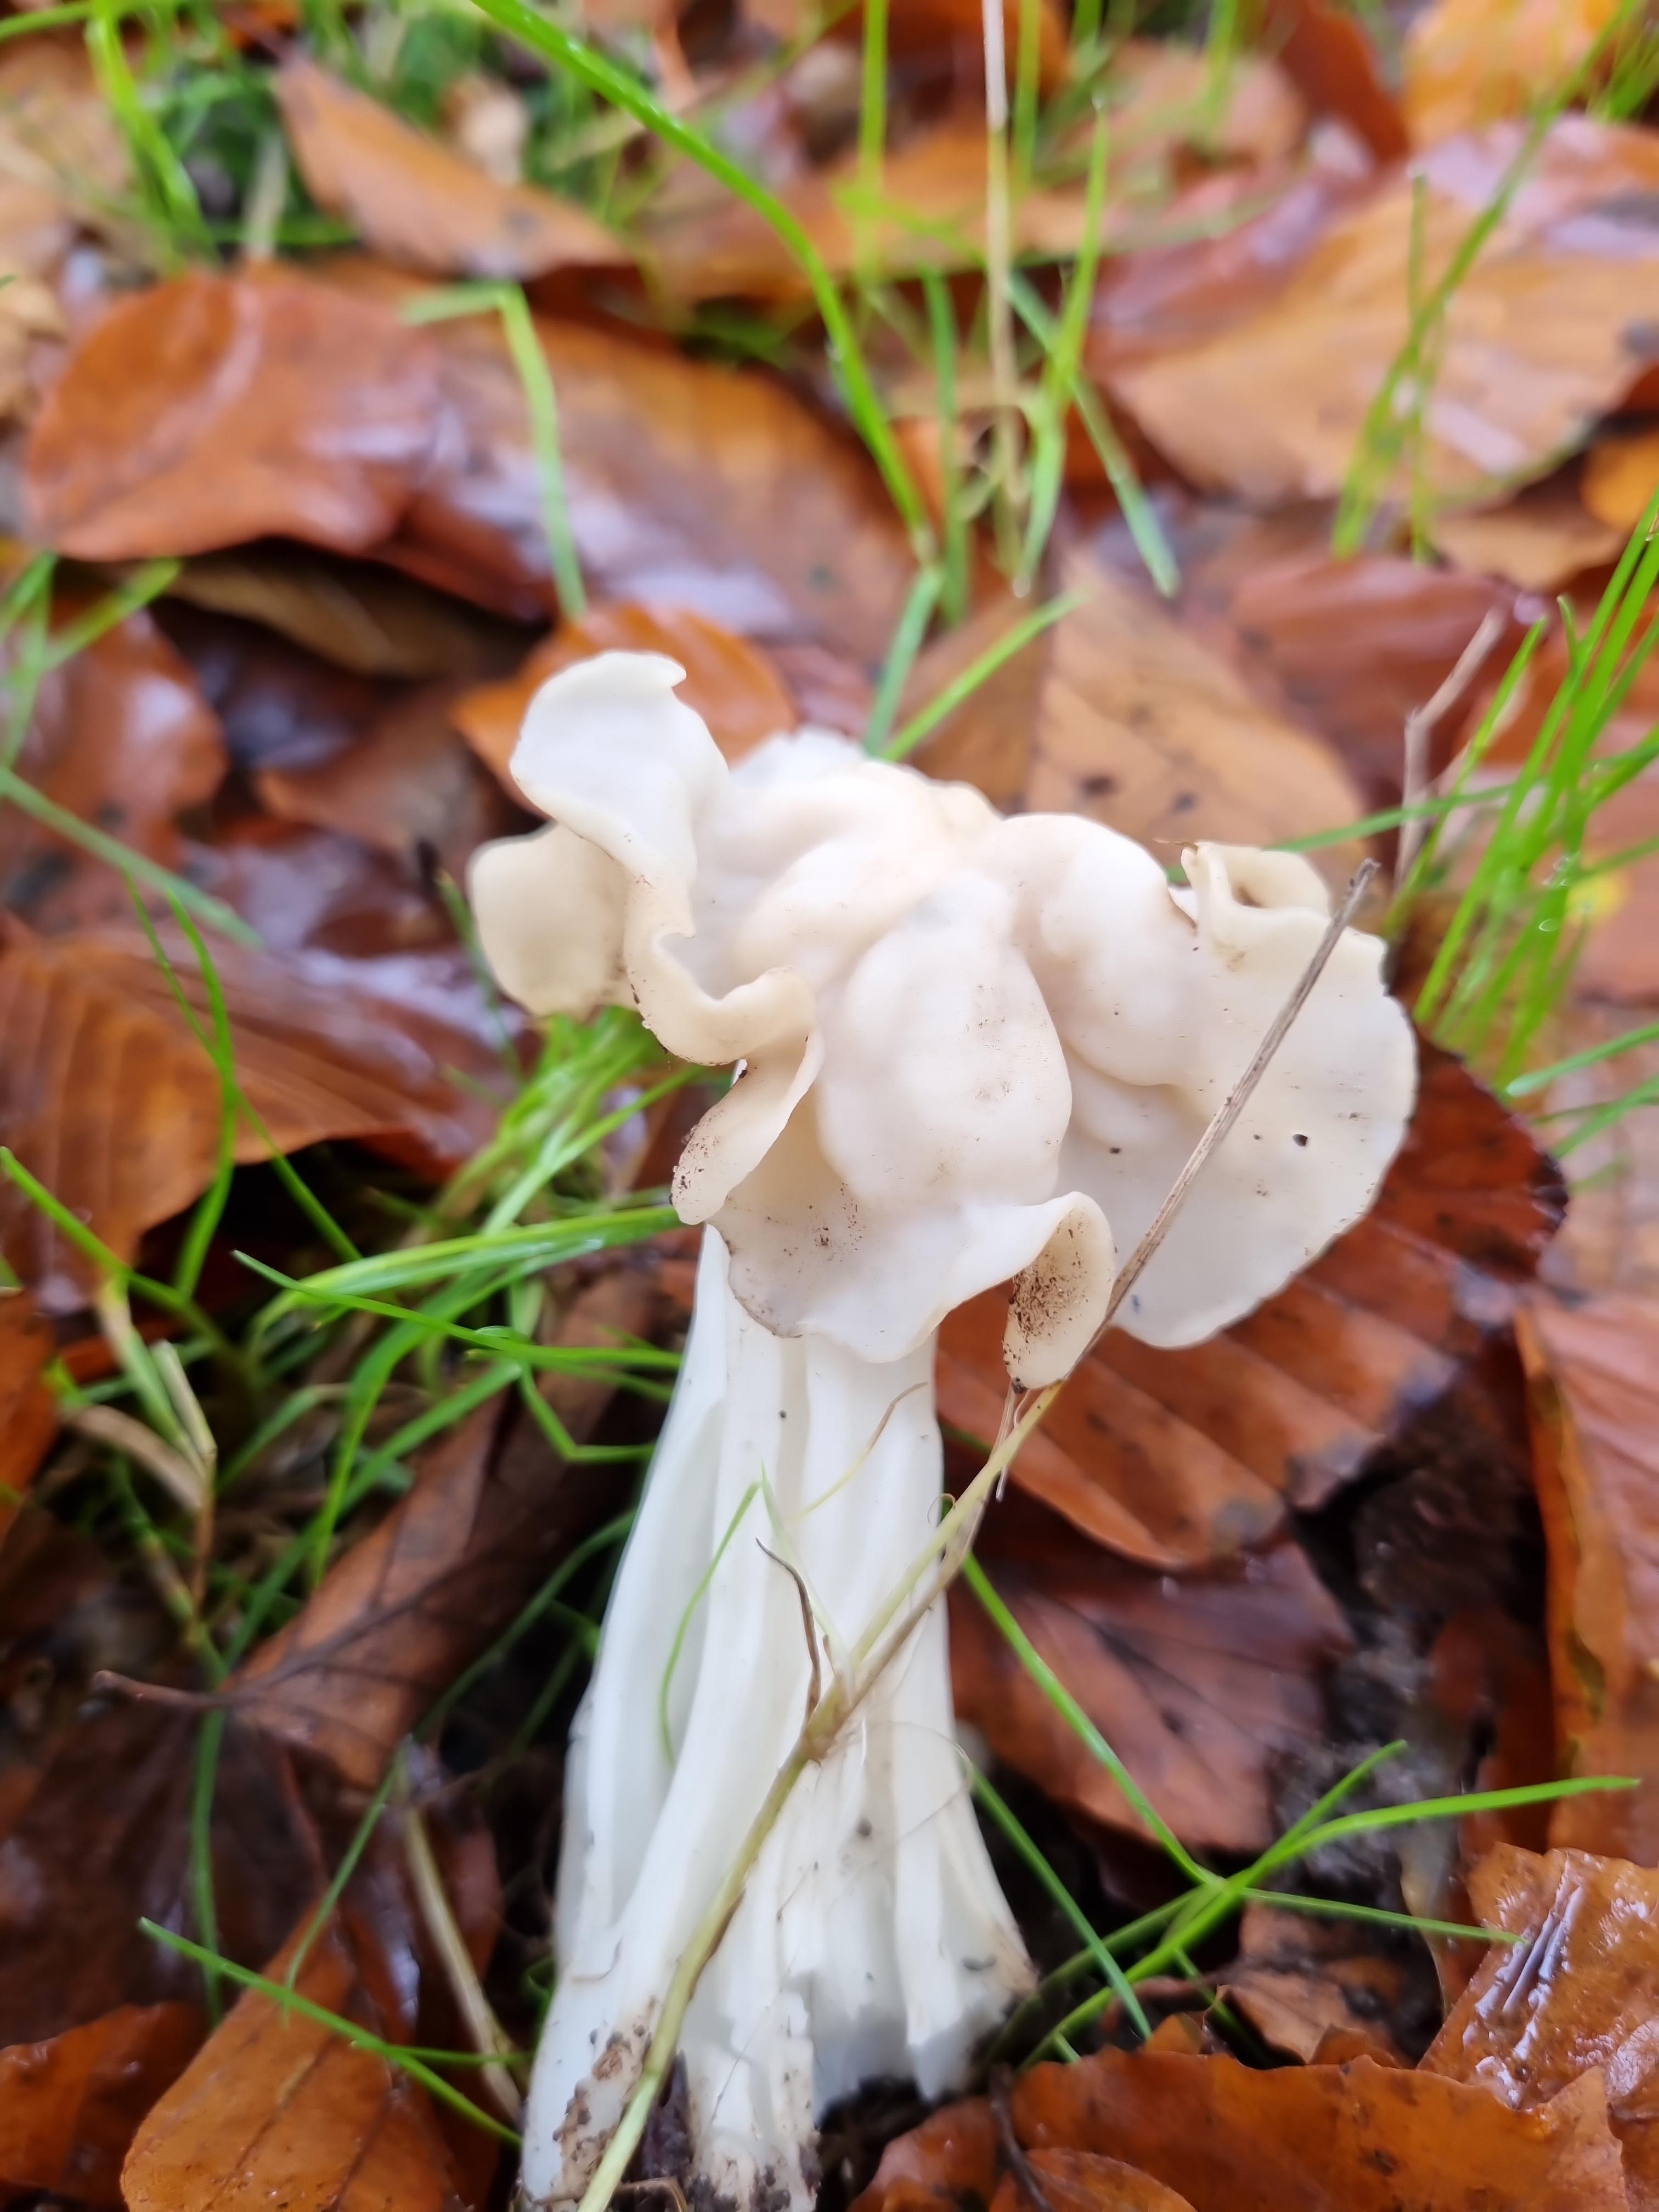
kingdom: Fungi
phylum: Ascomycota
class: Pezizomycetes
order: Pezizales
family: Helvellaceae
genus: Helvella
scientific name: Helvella crispa
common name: kruset foldhat
